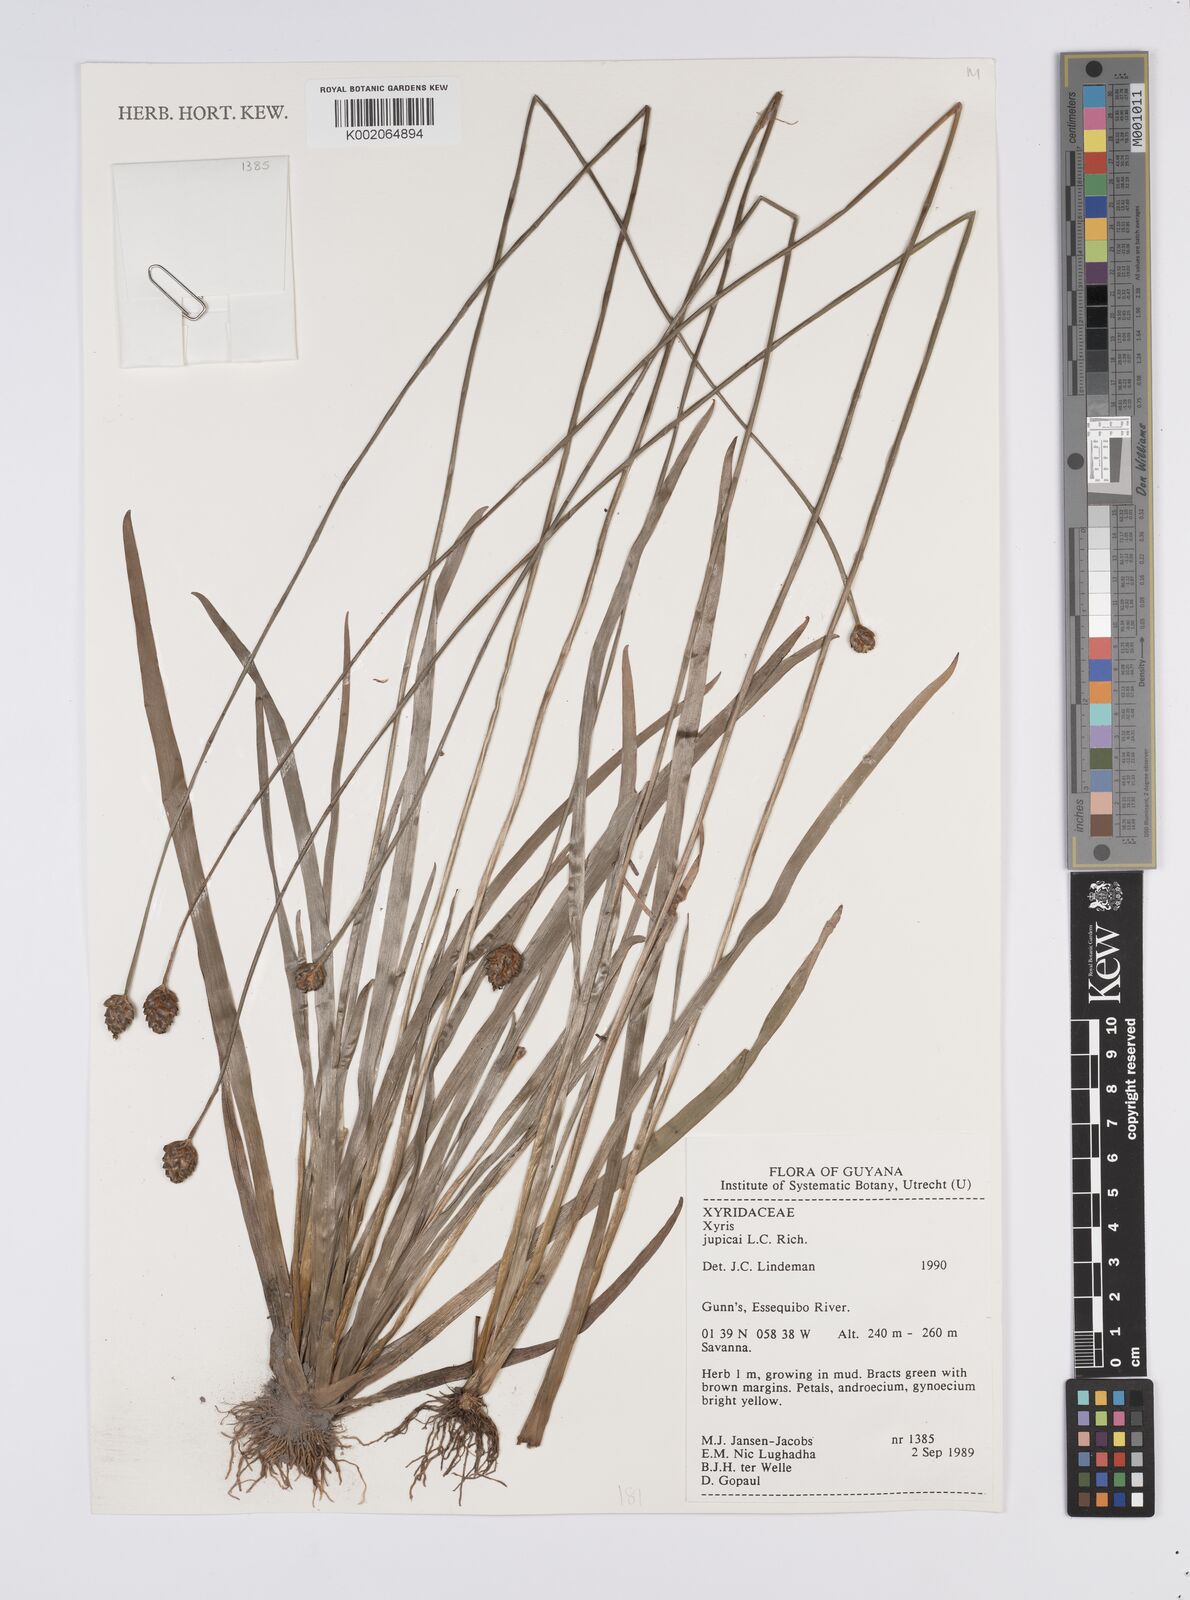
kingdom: Plantae
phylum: Tracheophyta
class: Liliopsida
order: Poales
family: Xyridaceae
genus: Xyris
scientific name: Xyris jupicai
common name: Richard's yelloweyed grass
